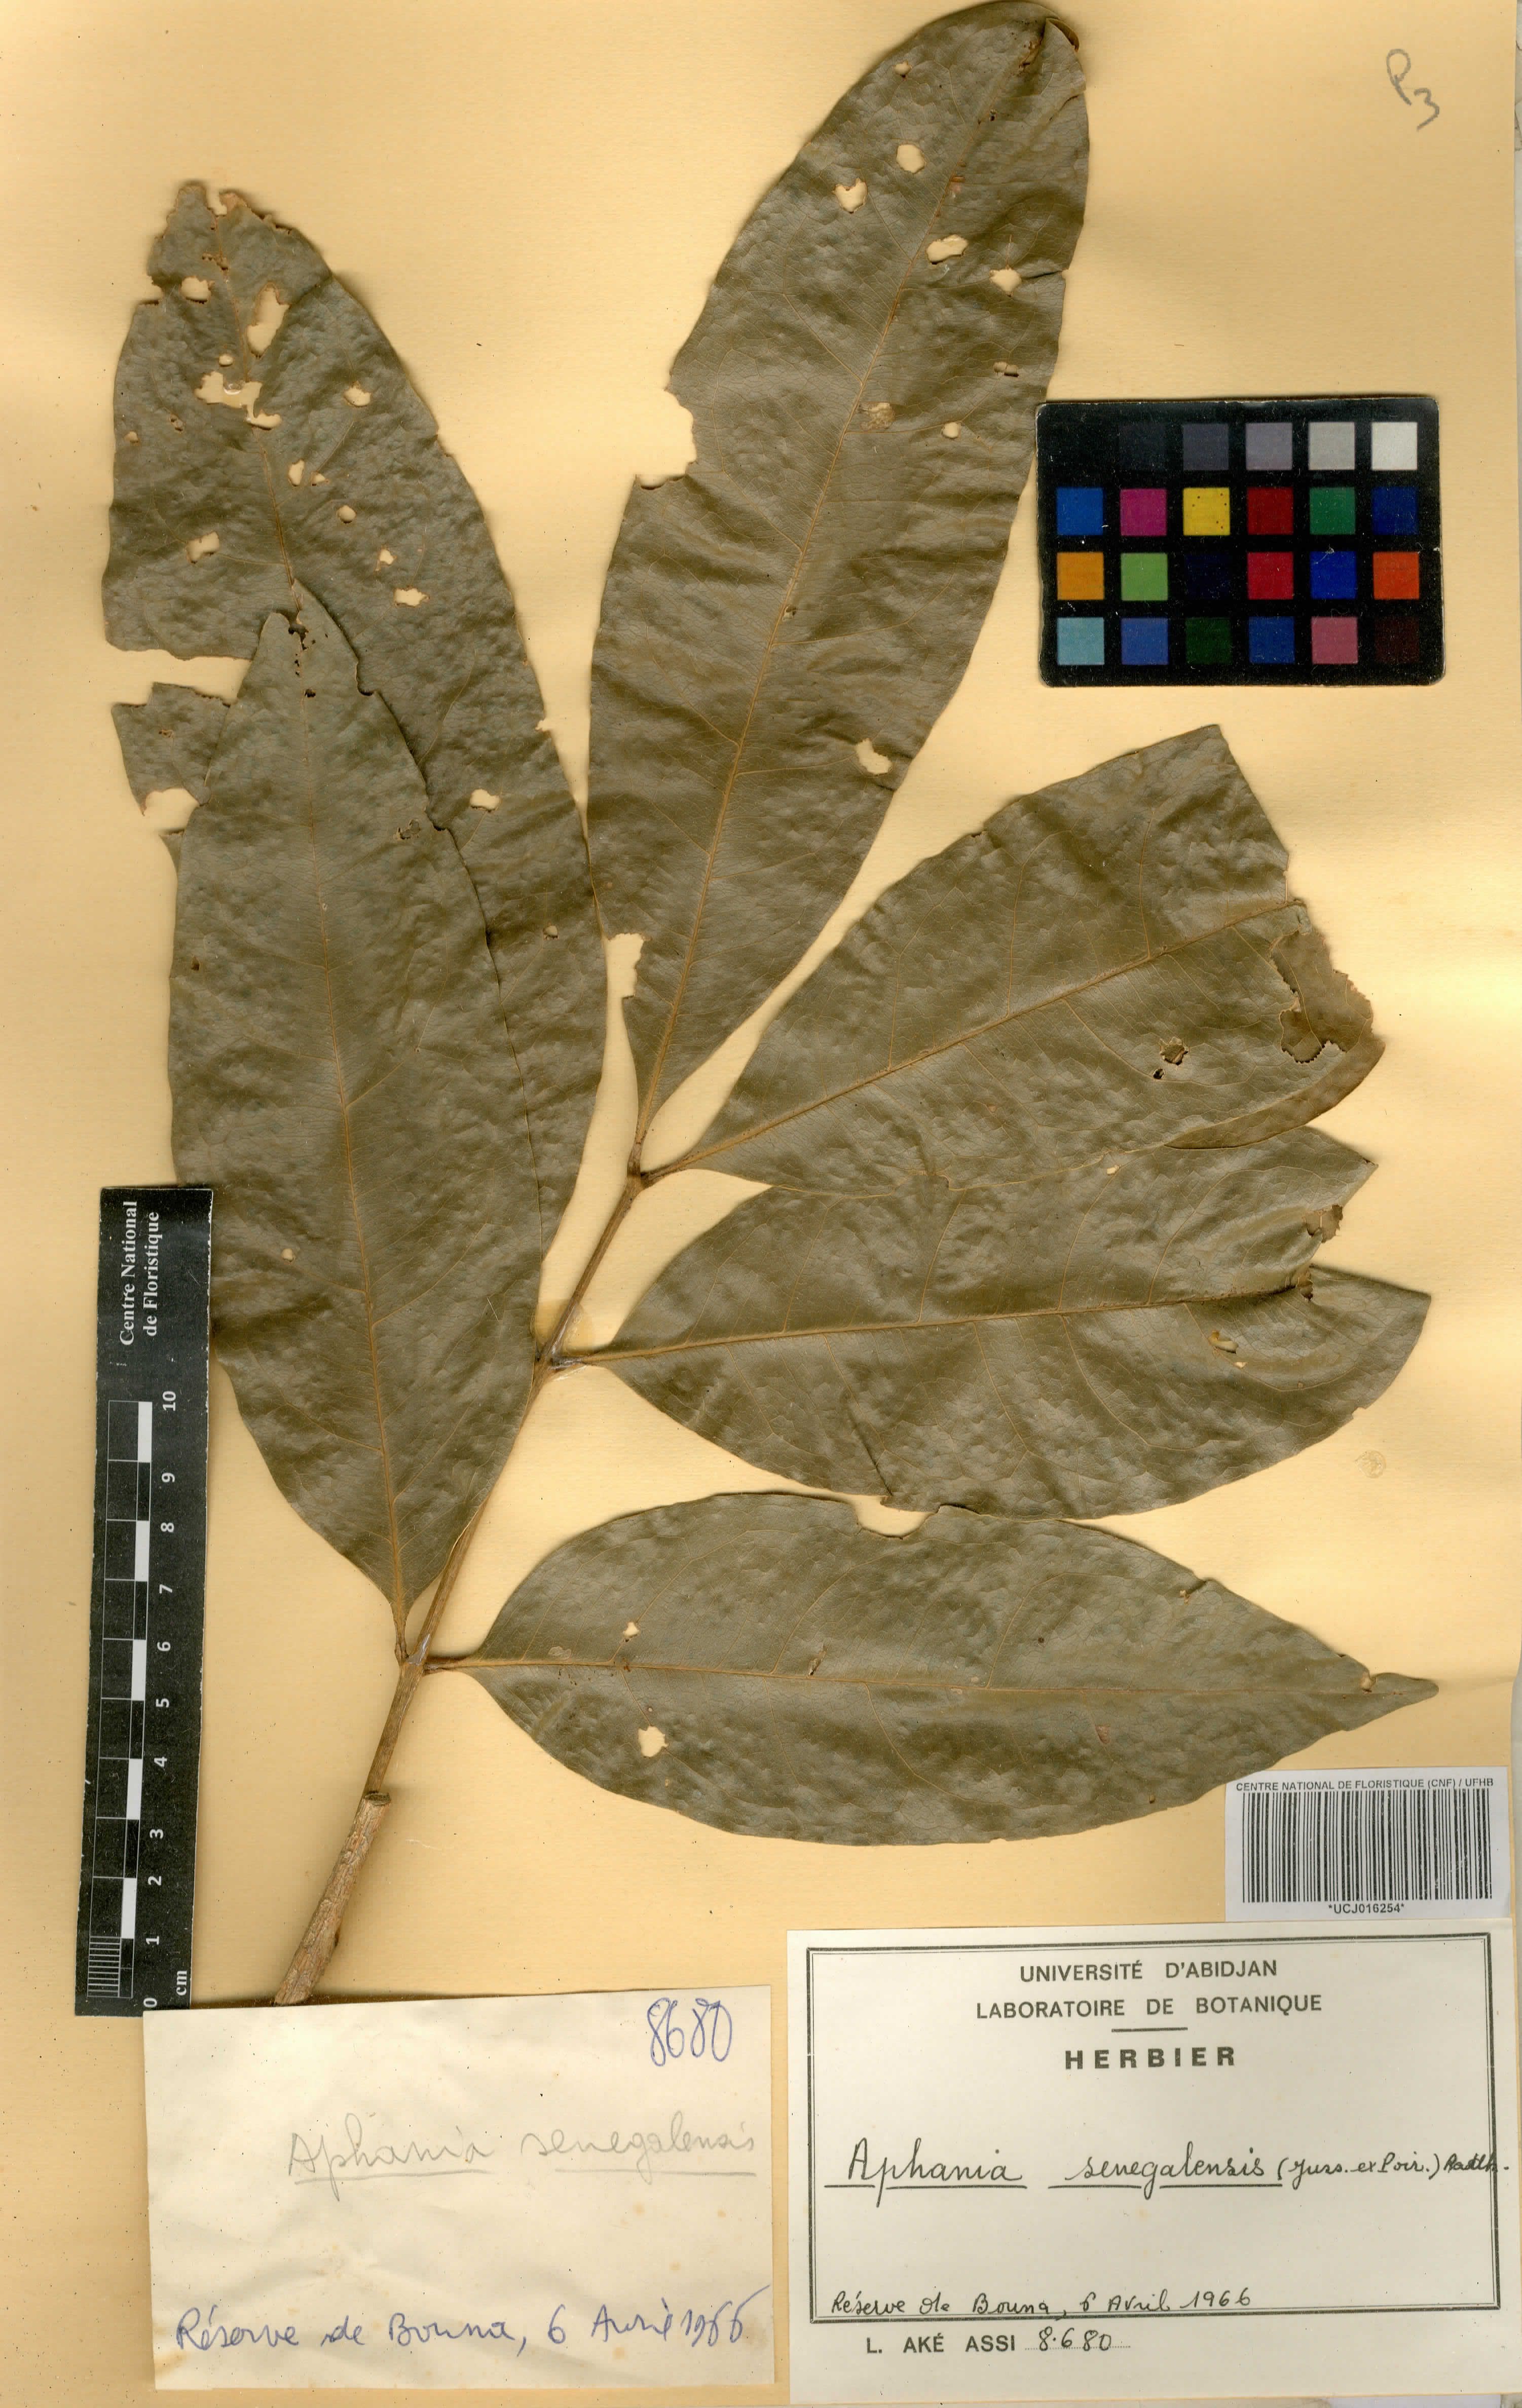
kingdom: Plantae
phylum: Tracheophyta
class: Magnoliopsida
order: Sapindales
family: Sapindaceae
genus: Lepisanthes
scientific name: Lepisanthes senegalensis
